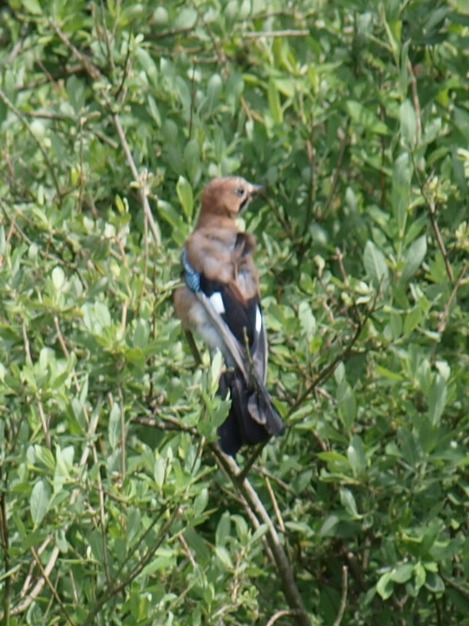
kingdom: Animalia
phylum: Chordata
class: Aves
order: Passeriformes
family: Corvidae
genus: Garrulus
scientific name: Garrulus glandarius
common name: Skovskade
